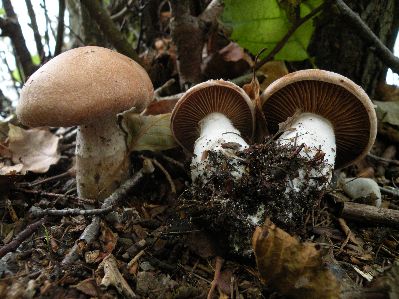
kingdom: Fungi
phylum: Basidiomycota
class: Agaricomycetes
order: Agaricales
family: Cortinariaceae
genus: Cortinarius
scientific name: Cortinarius bivelus
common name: orangebrun slørhat
